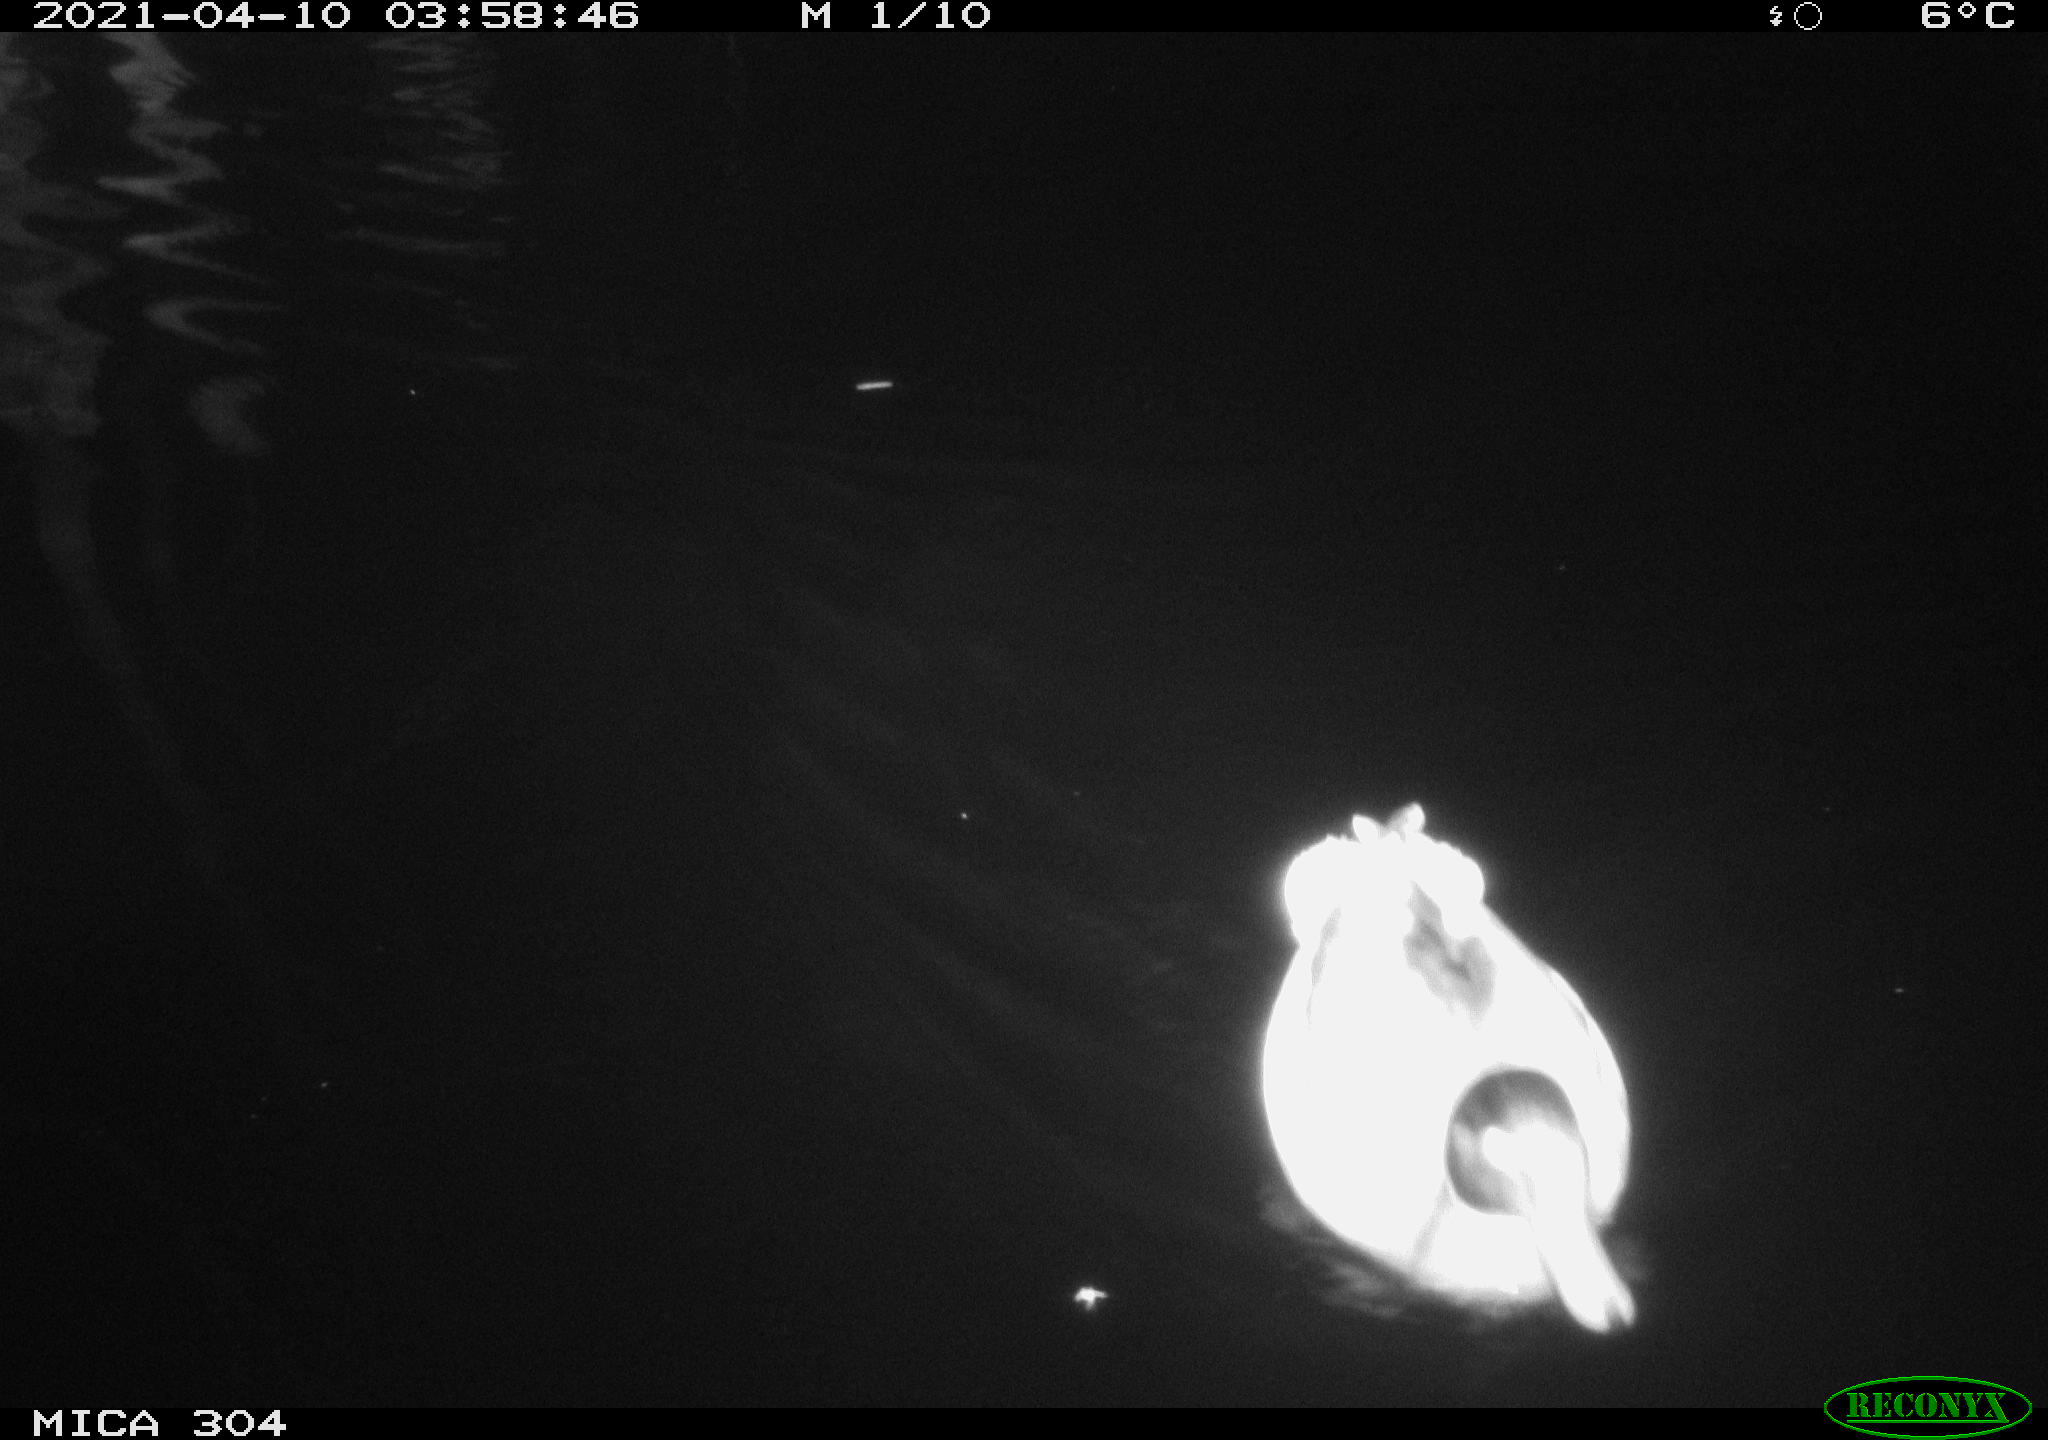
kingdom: Animalia
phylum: Chordata
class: Aves
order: Anseriformes
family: Anatidae
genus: Anas
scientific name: Anas
